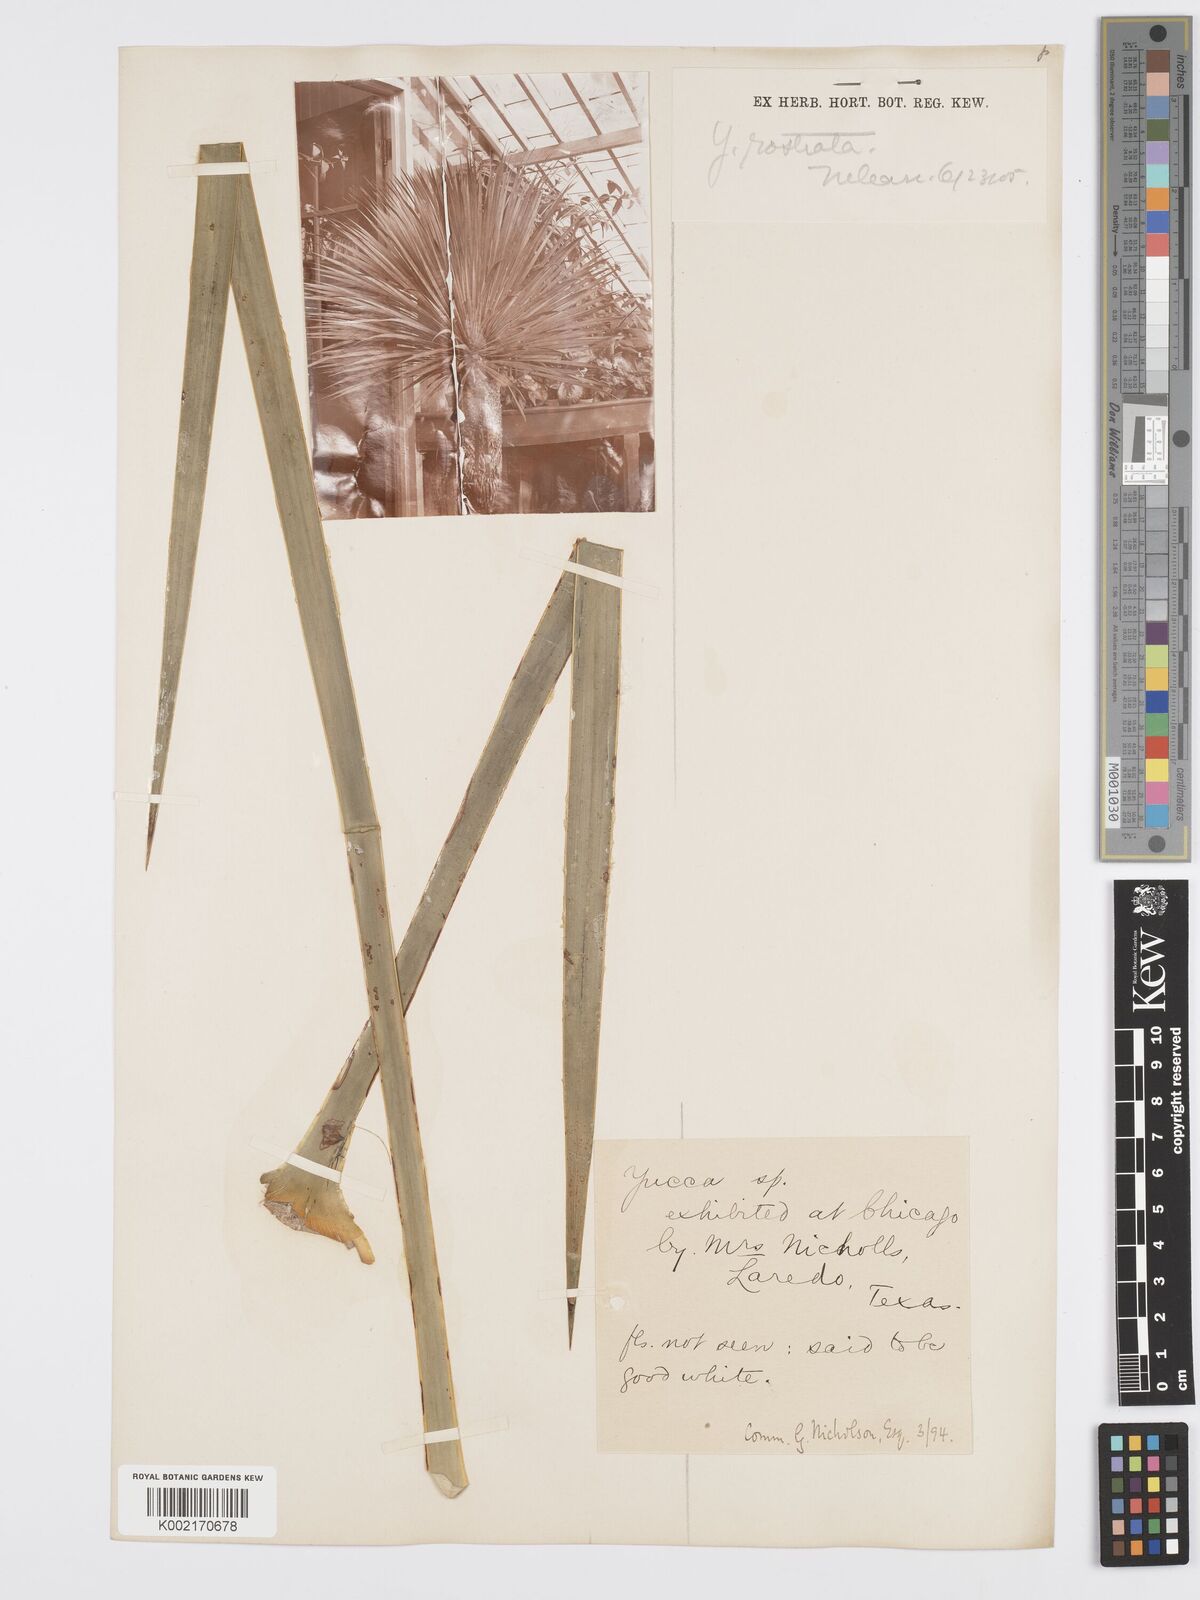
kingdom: Plantae
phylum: Tracheophyta
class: Liliopsida
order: Asparagales
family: Asparagaceae
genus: Yucca
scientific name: Yucca rostrata
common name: Big bend yucca
